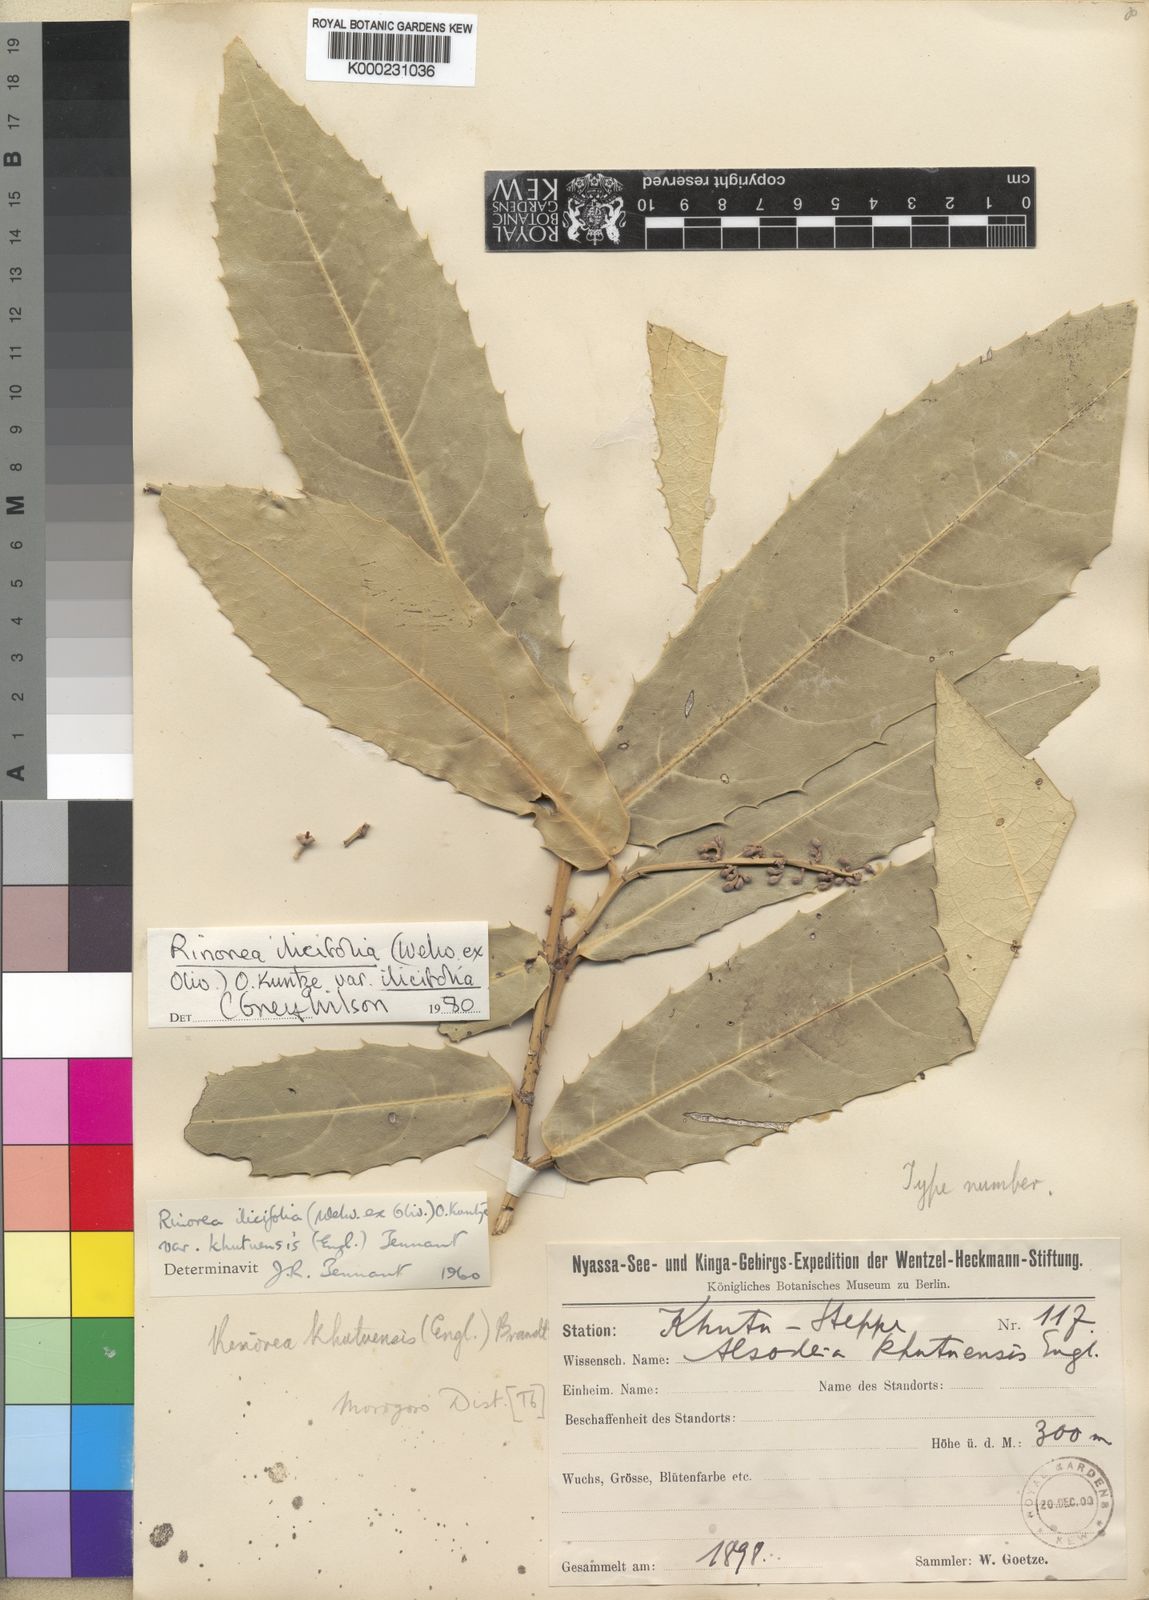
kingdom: Plantae
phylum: Tracheophyta
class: Magnoliopsida
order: Malpighiales
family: Violaceae
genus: Rinorea
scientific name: Rinorea ilicifolia
